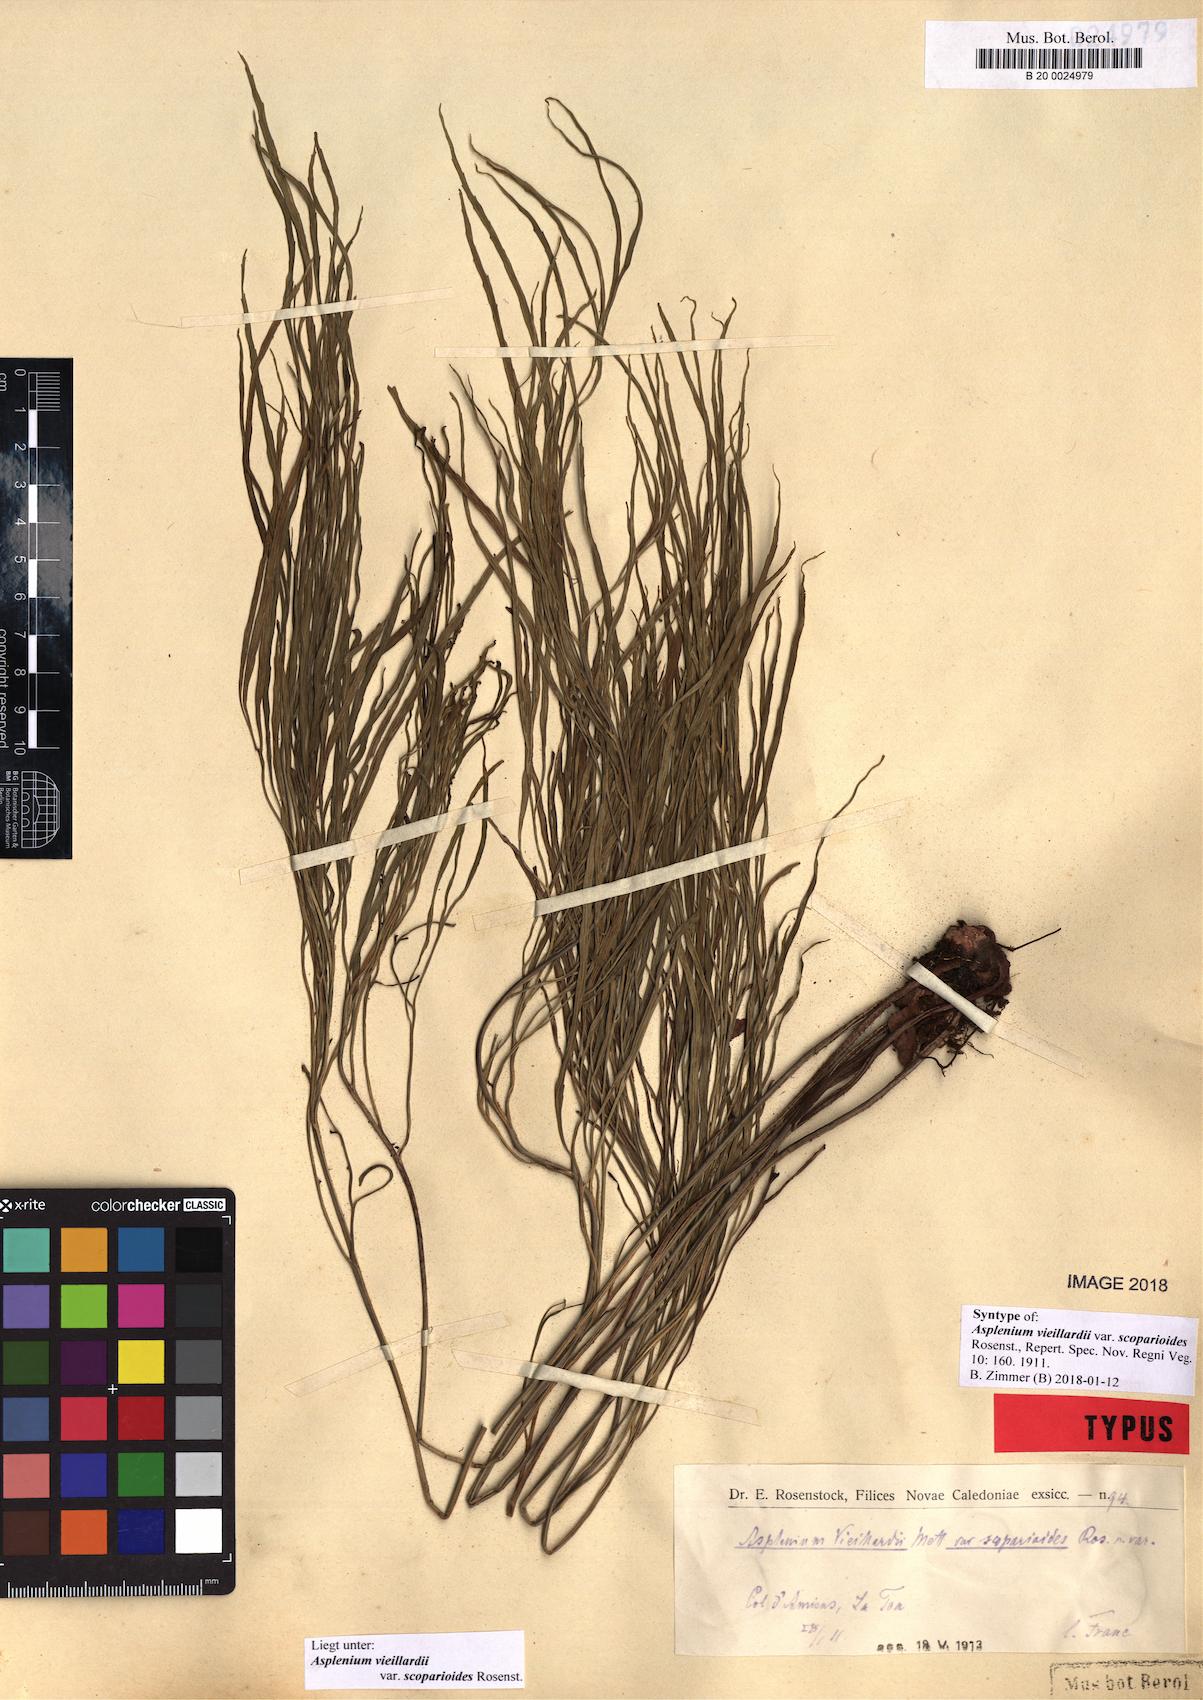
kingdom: Plantae
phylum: Tracheophyta
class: Polypodiopsida
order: Polypodiales
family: Aspleniaceae
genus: Asplenium
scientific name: Asplenium vieillardii
